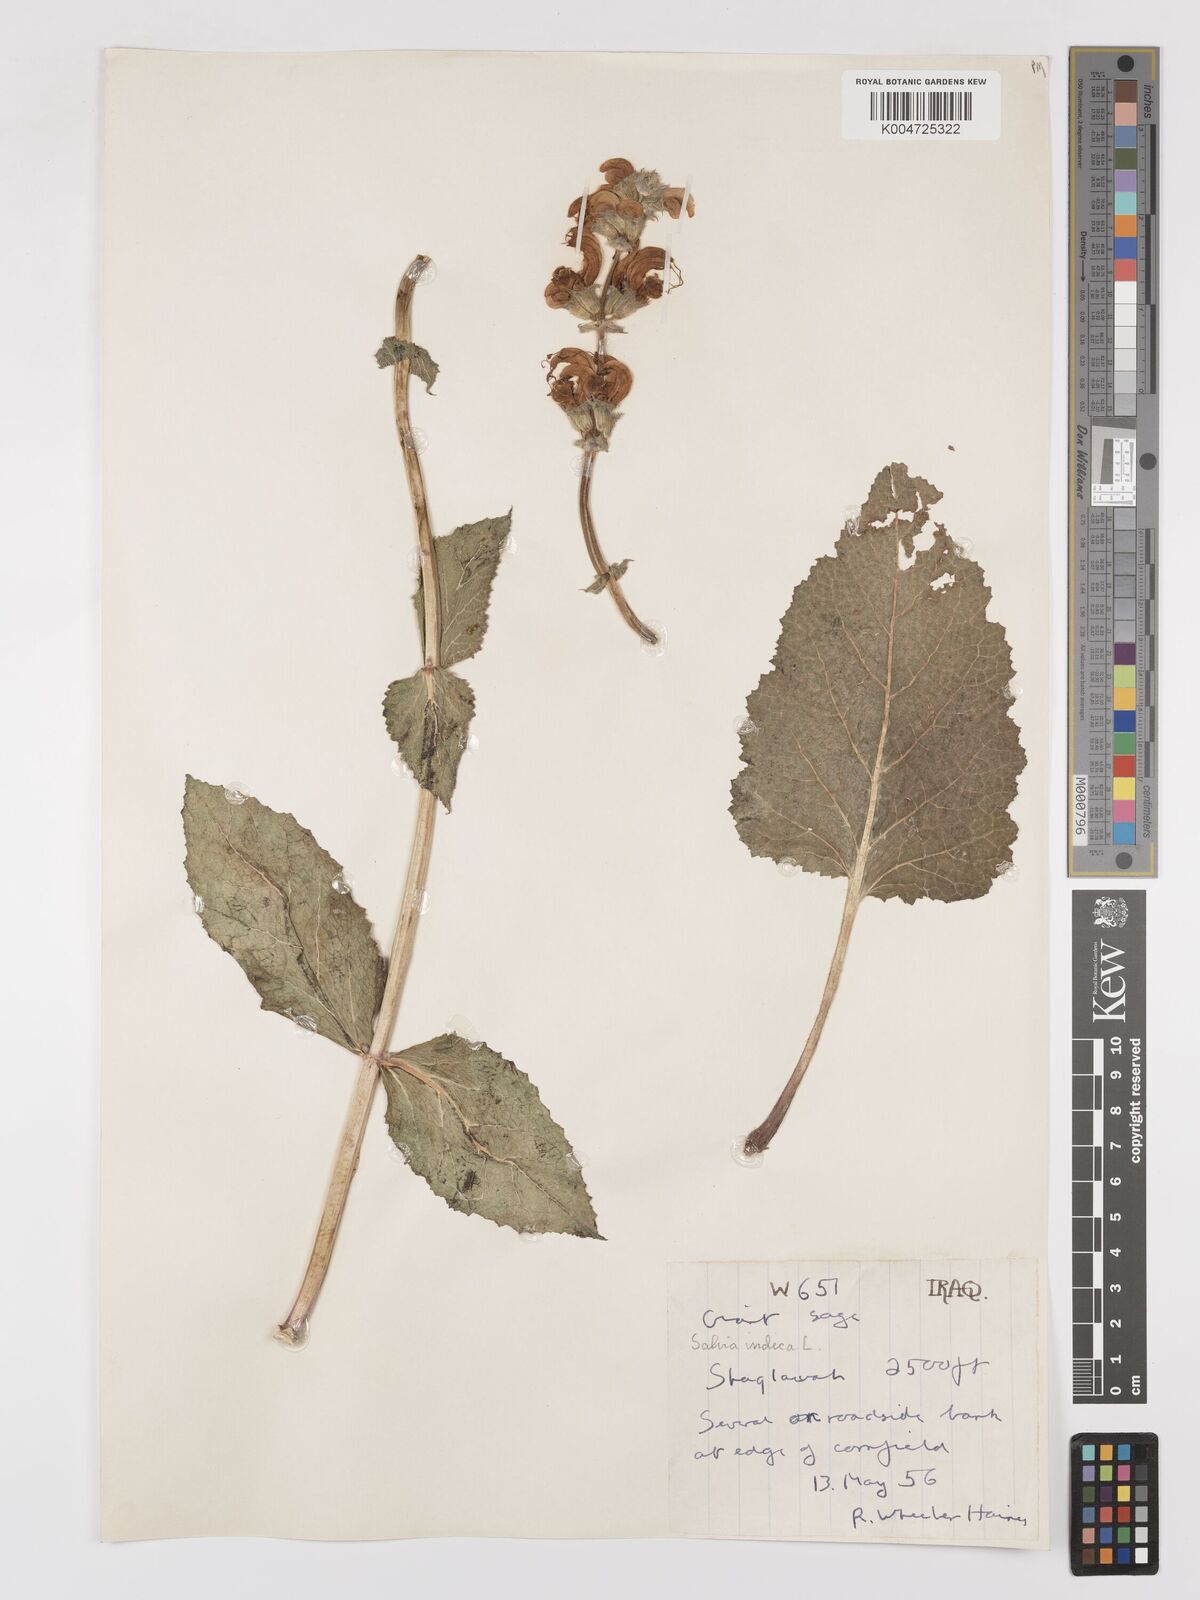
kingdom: Plantae
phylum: Tracheophyta
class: Magnoliopsida
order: Lamiales
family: Lamiaceae
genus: Salvia
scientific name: Salvia indica
